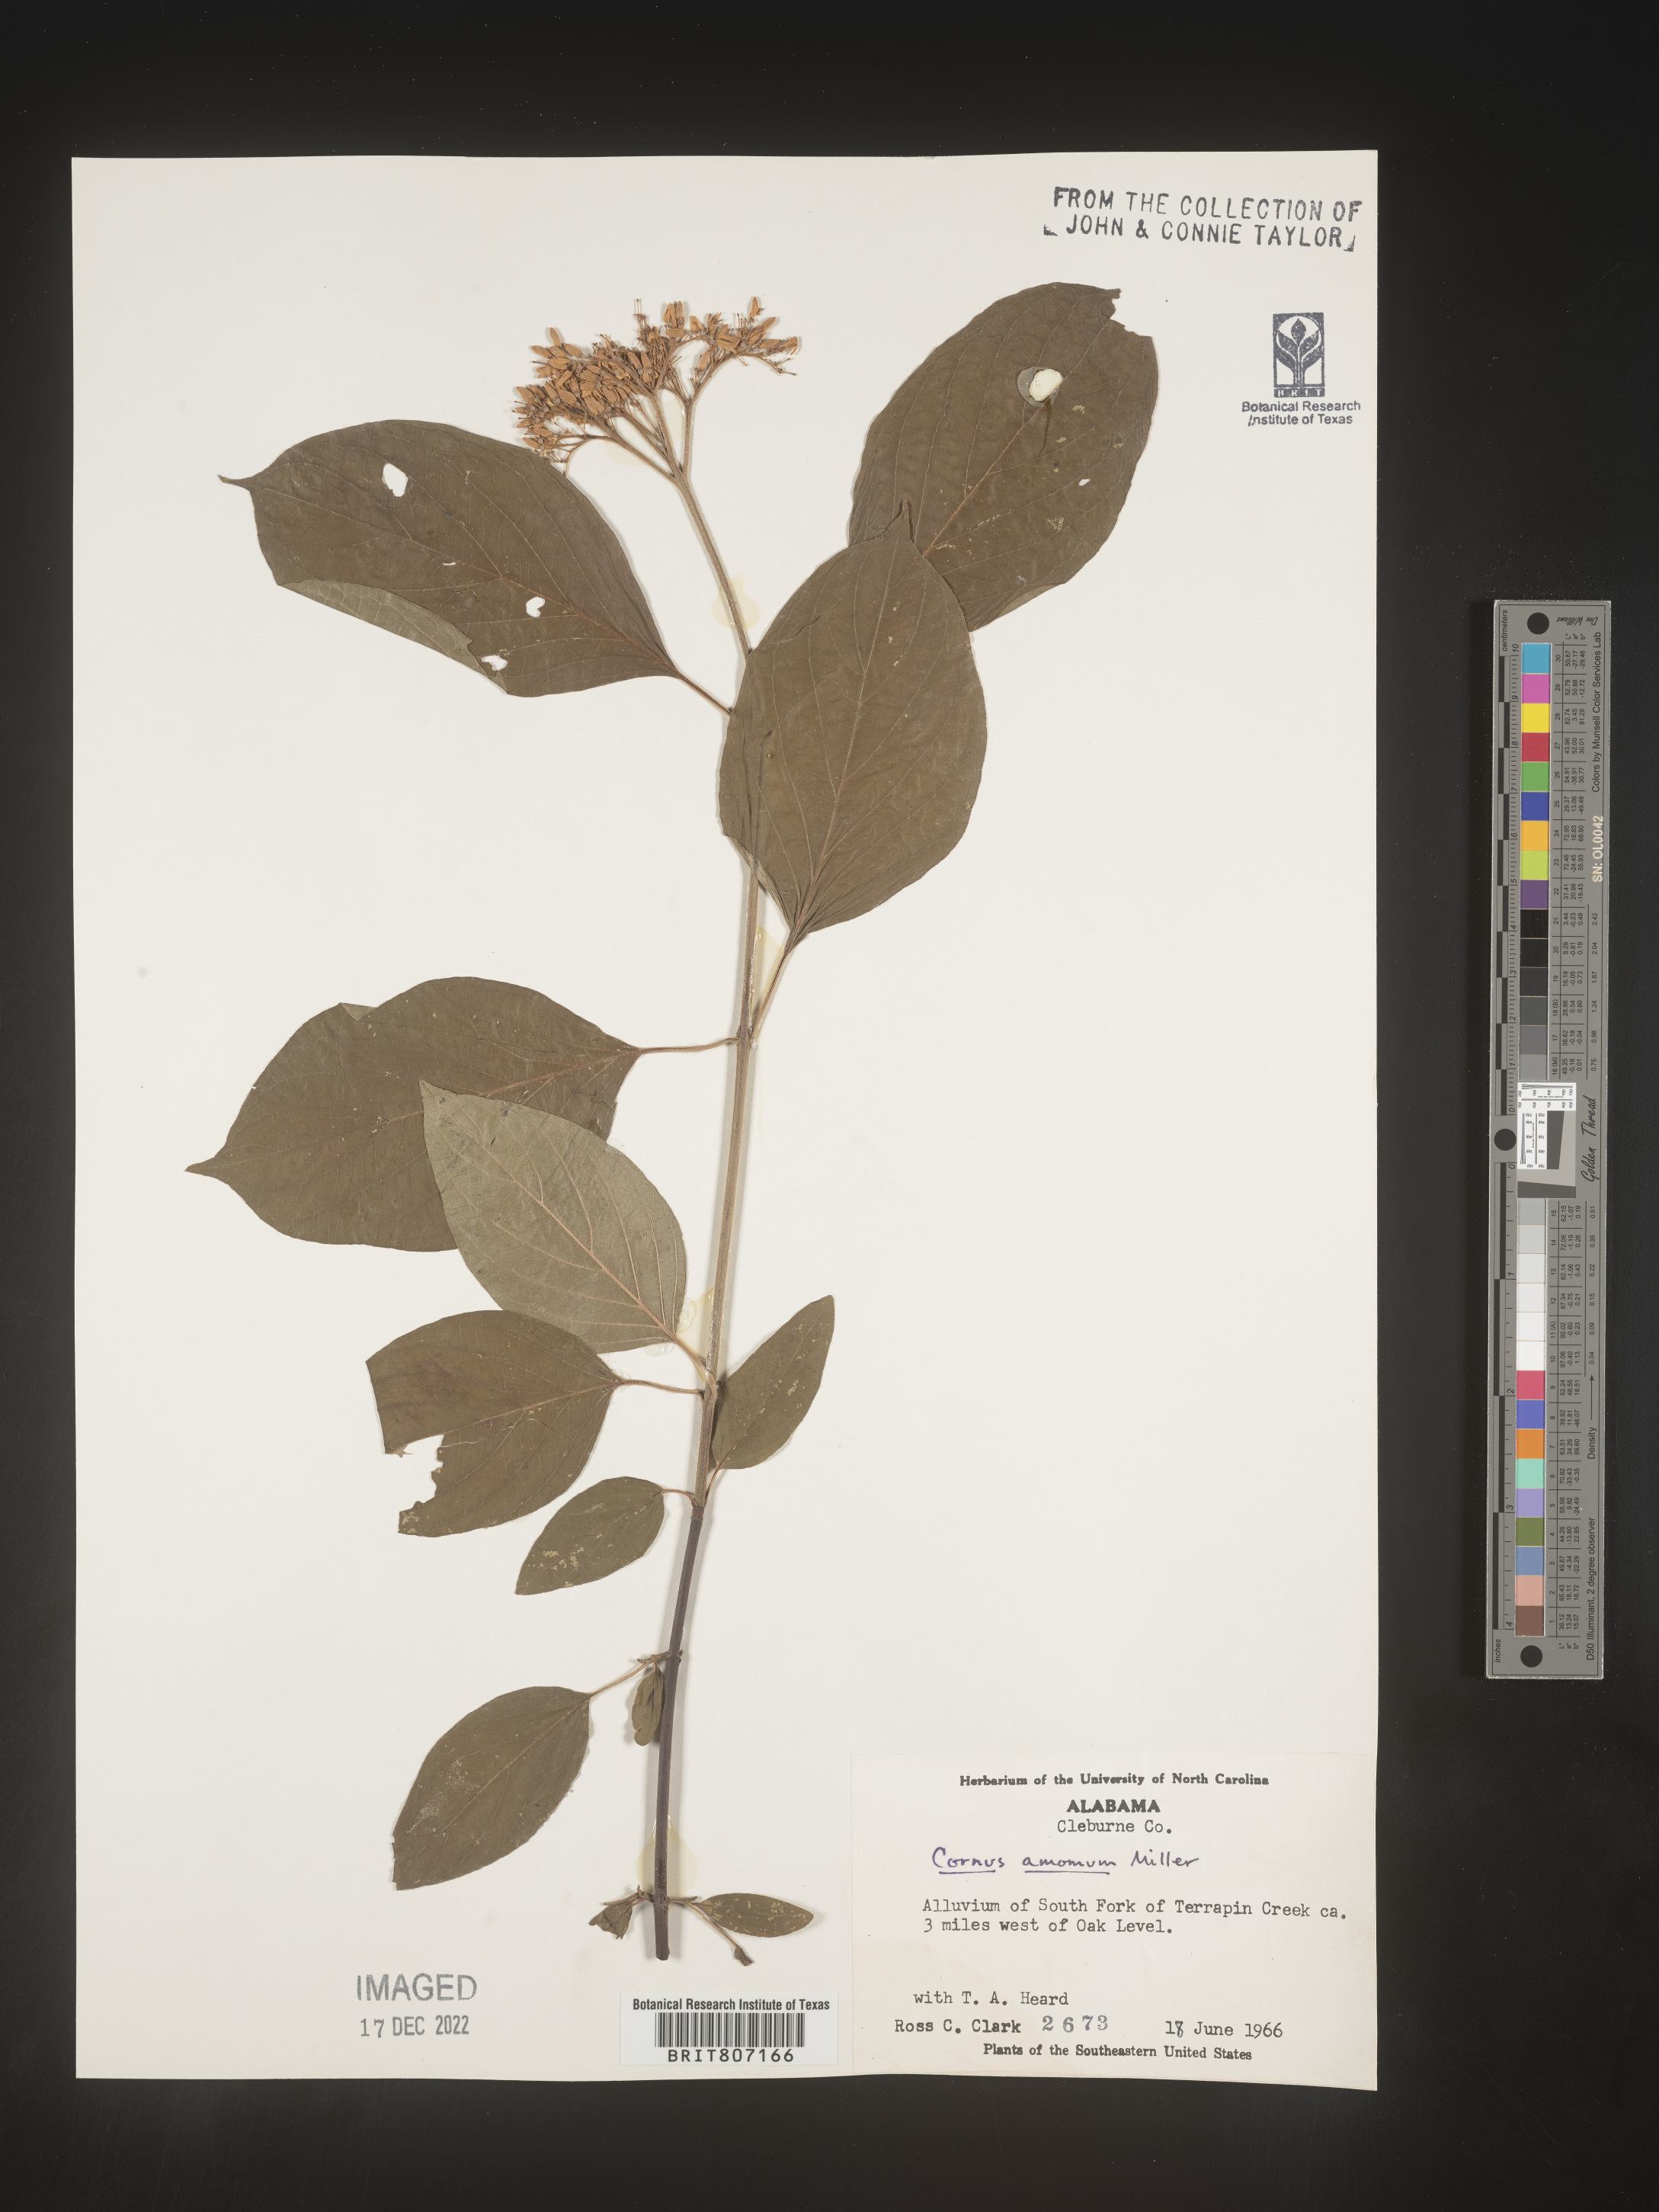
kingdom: Plantae
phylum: Tracheophyta
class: Magnoliopsida
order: Cornales
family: Cornaceae
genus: Cornus
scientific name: Cornus amomum
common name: Silky dogwood
